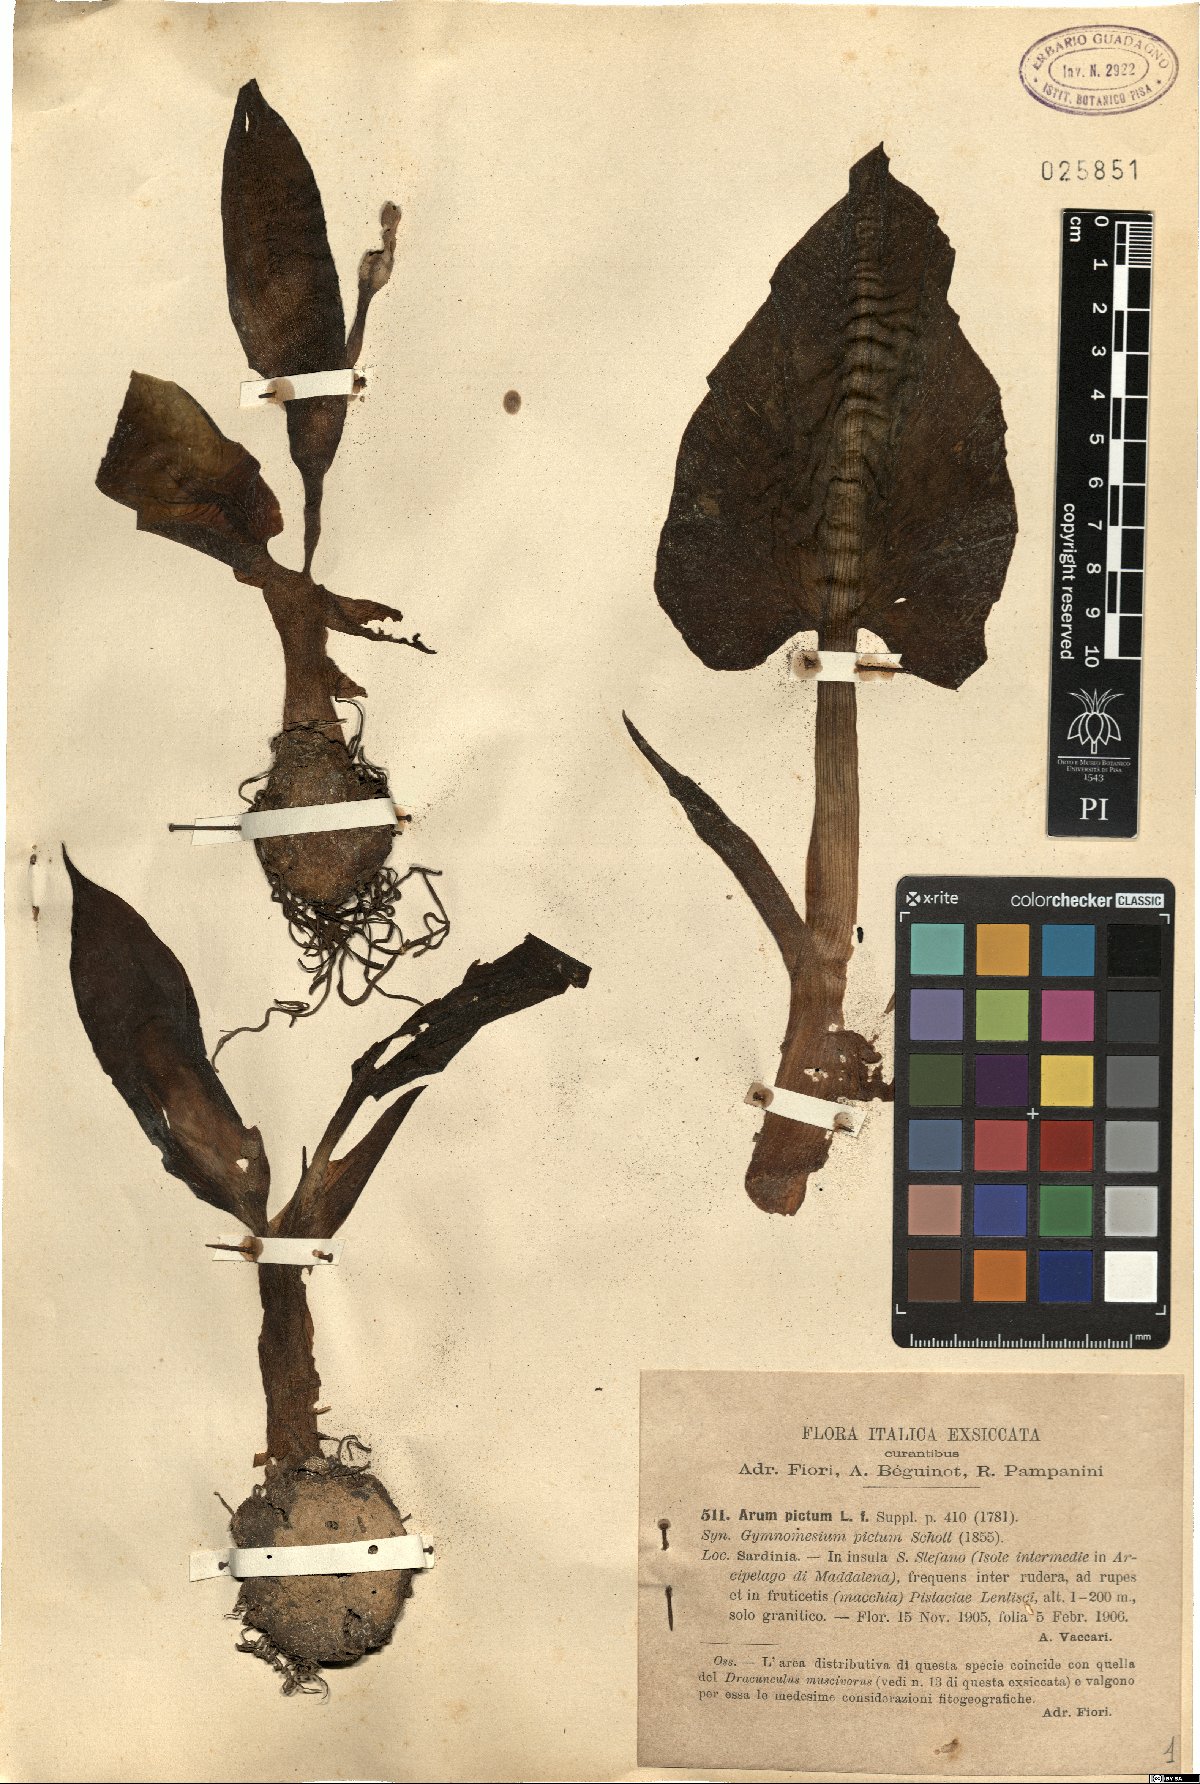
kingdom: Plantae
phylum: Tracheophyta
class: Liliopsida
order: Alismatales
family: Araceae
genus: Arum
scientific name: Arum pictum
